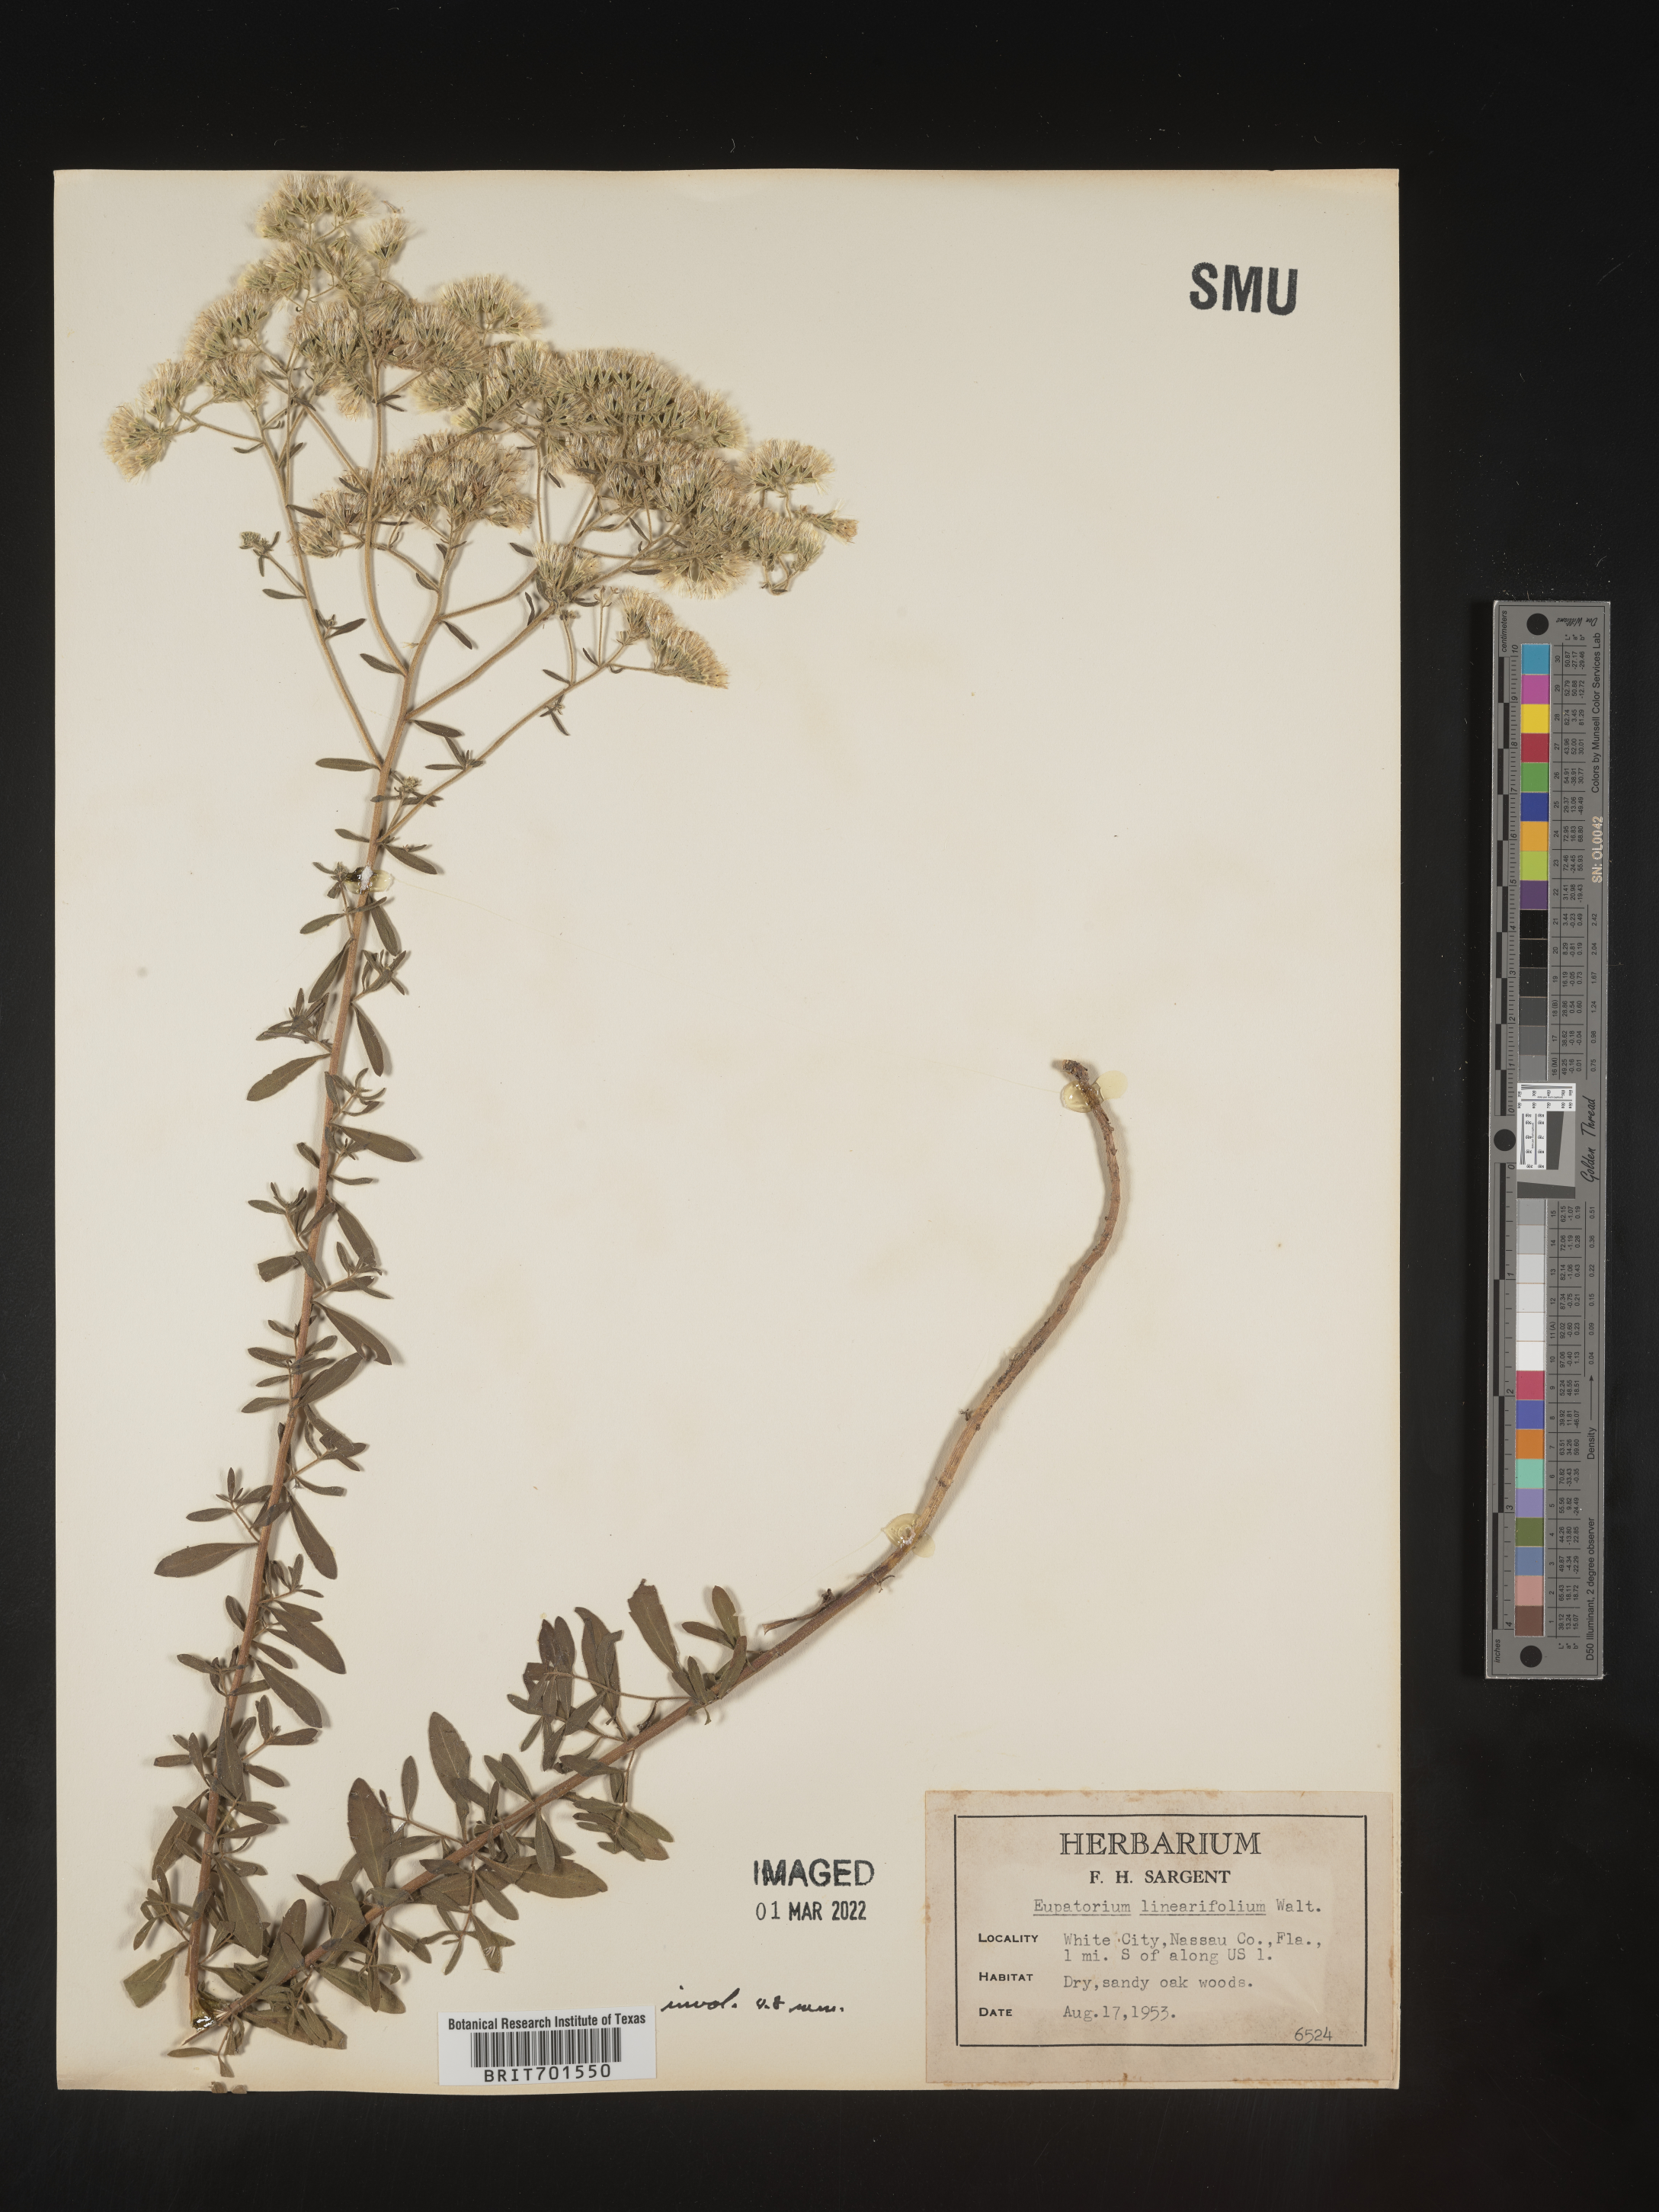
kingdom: Plantae
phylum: Tracheophyta
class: Magnoliopsida
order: Asterales
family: Asteraceae
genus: Eupatorium
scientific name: Eupatorium linearifolium
